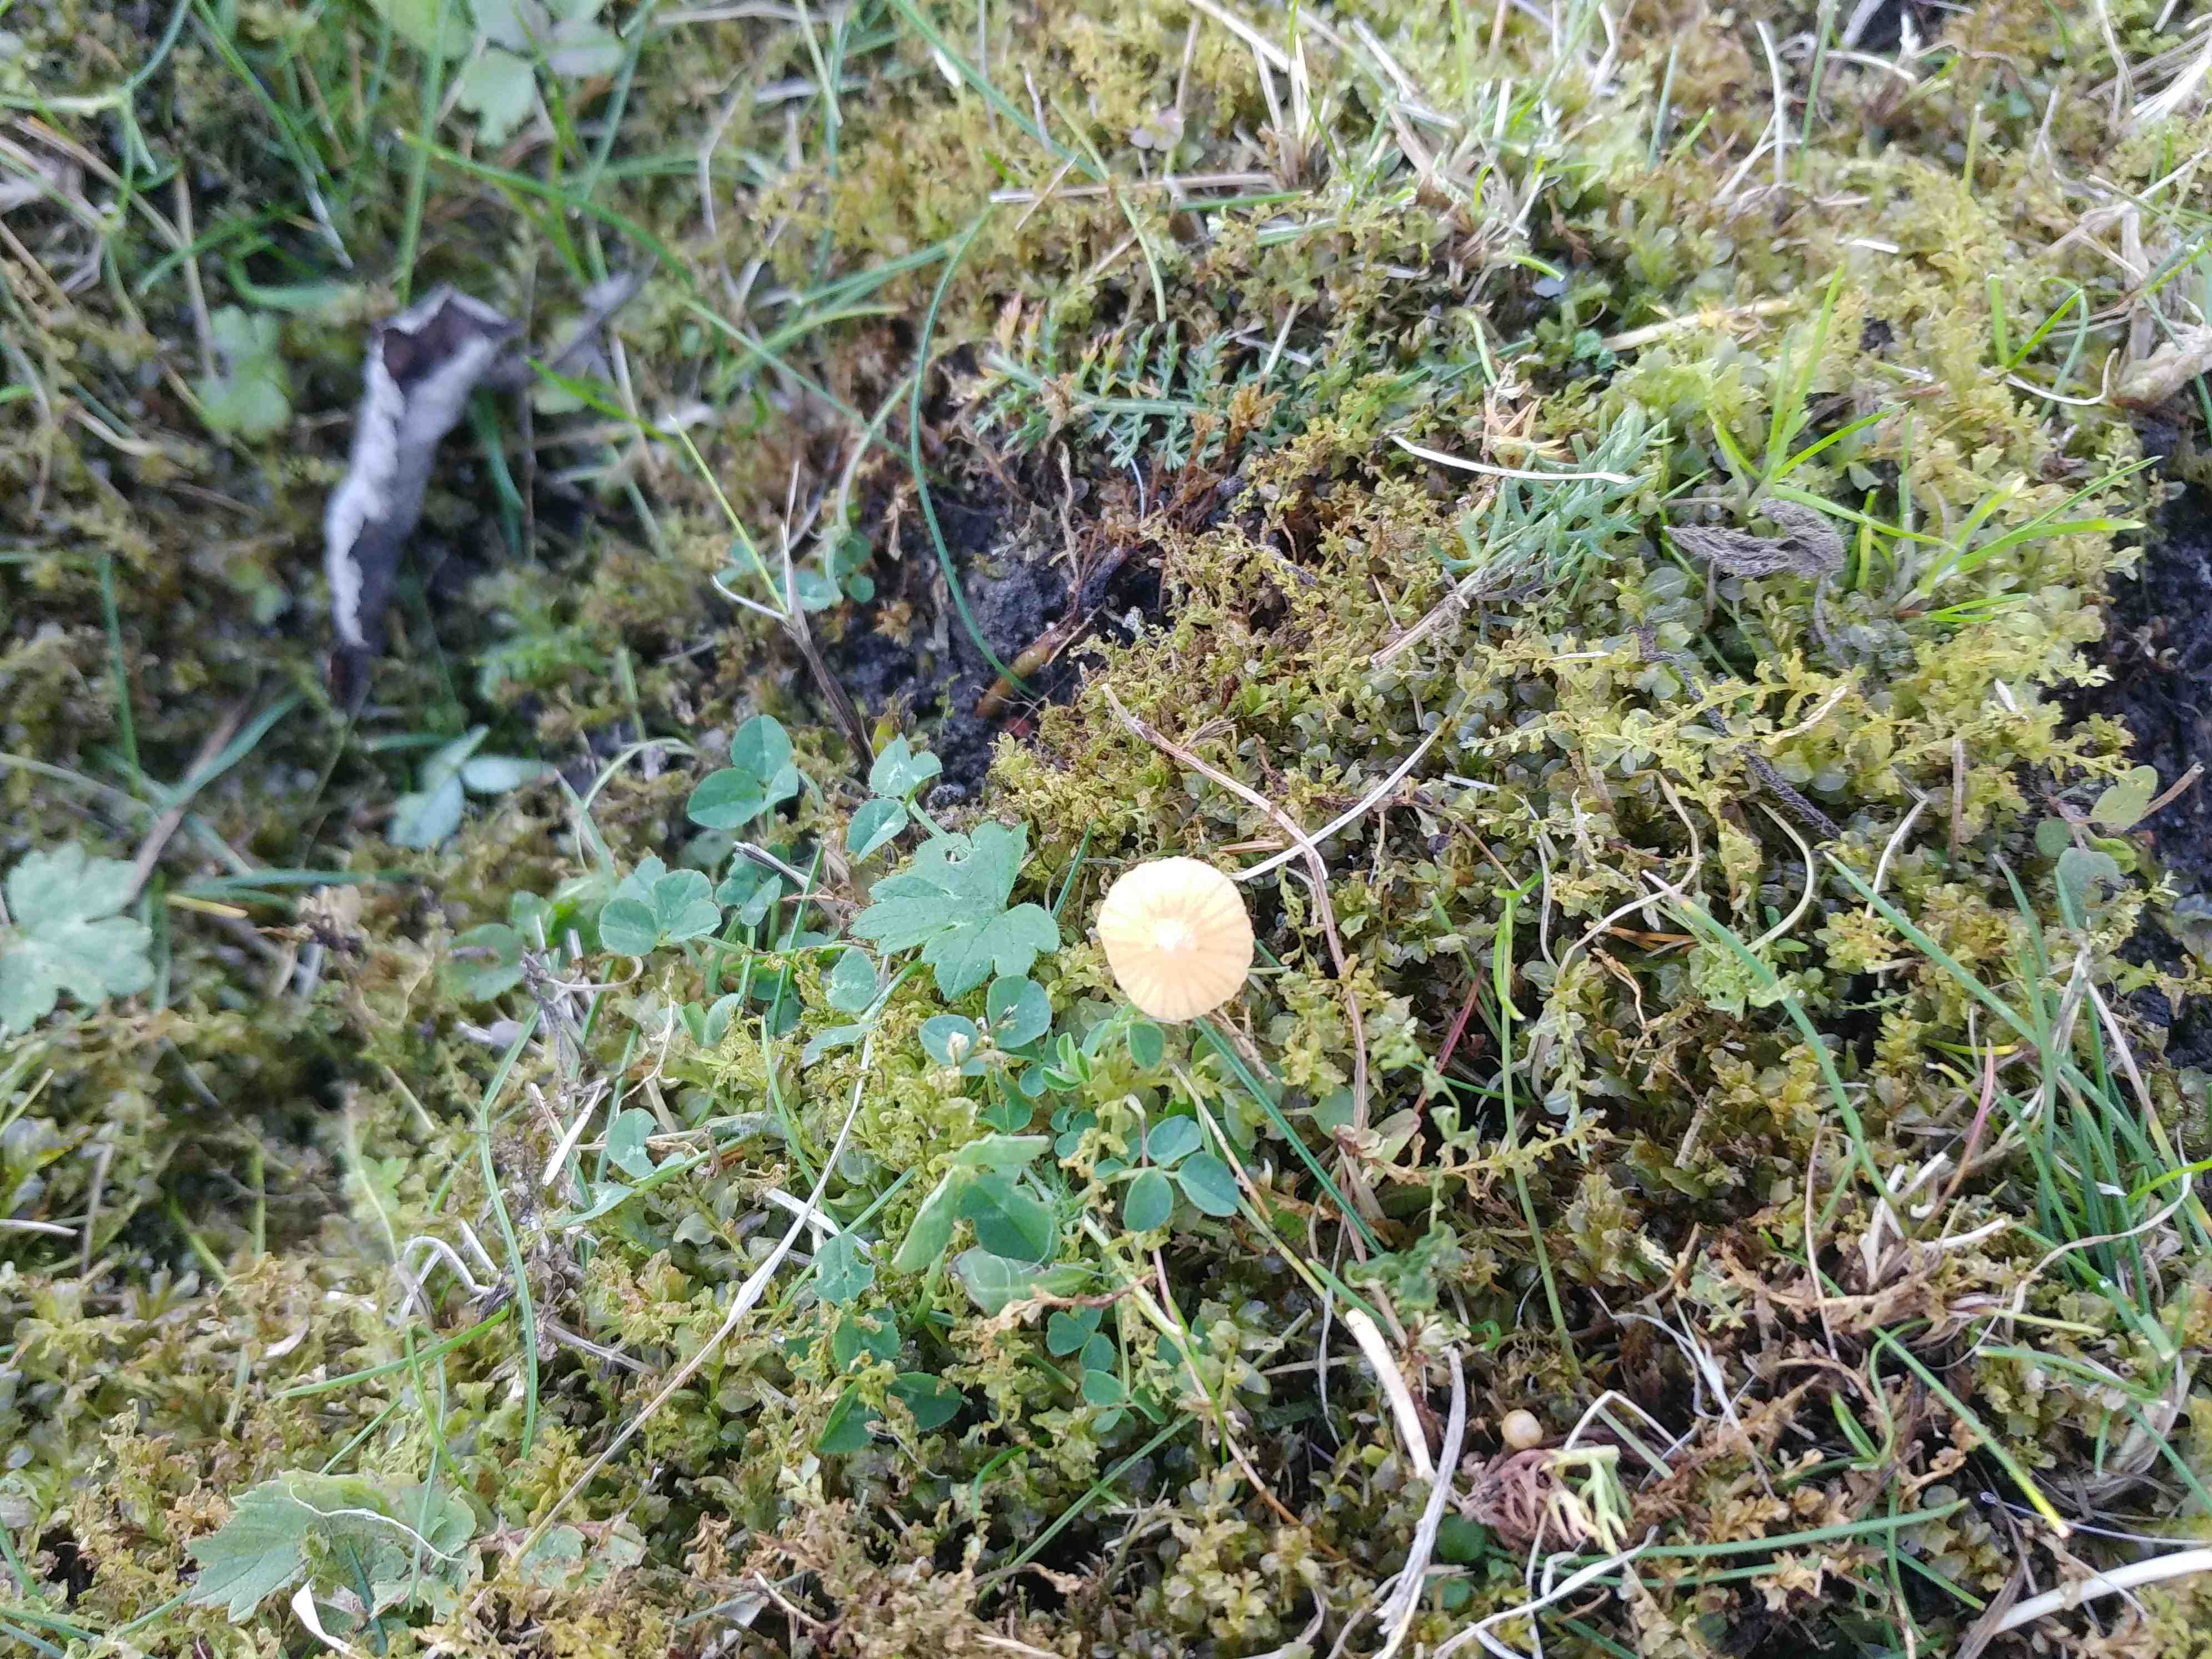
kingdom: Fungi
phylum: Basidiomycota
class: Agaricomycetes
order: Agaricales
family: Hymenogastraceae
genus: Galerina
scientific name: Galerina
